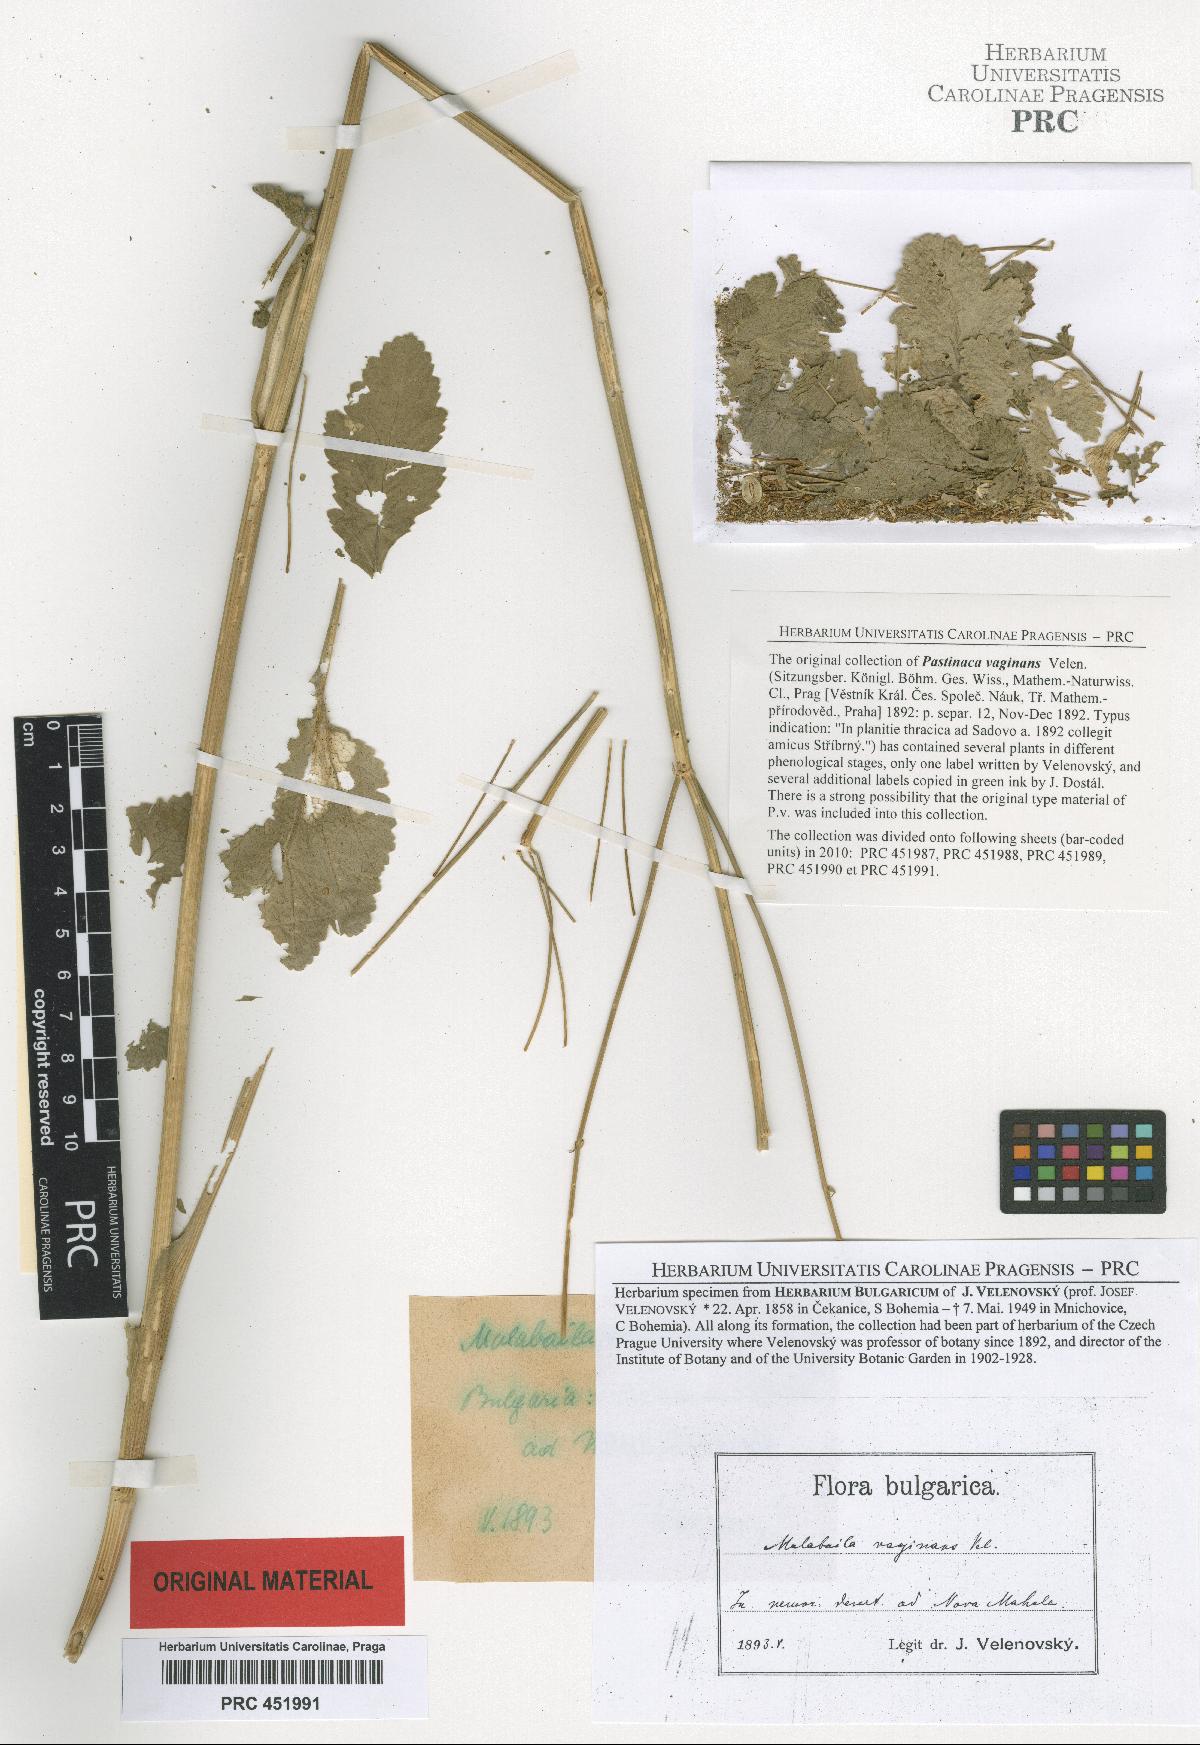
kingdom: Plantae
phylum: Tracheophyta
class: Magnoliopsida
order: Apiales
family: Apiaceae
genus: Pastinaca
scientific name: Pastinaca clausii
